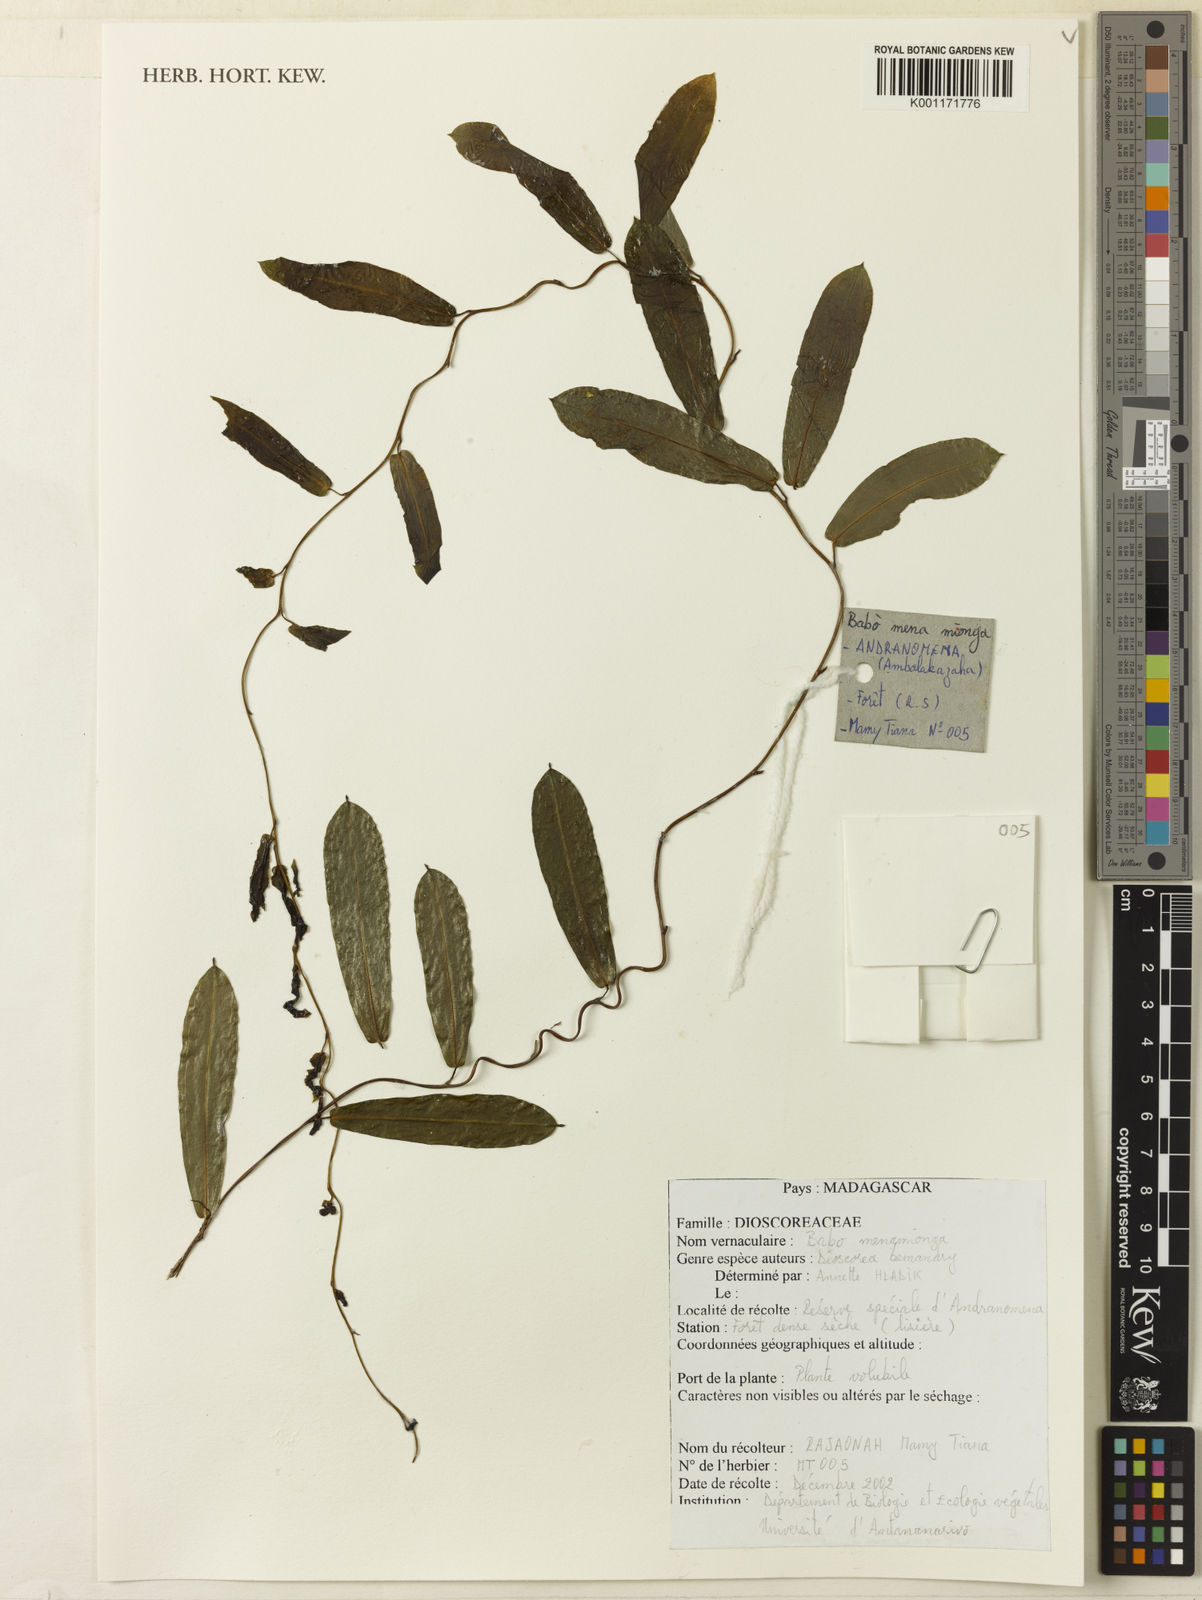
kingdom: Plantae
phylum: Tracheophyta
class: Liliopsida
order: Dioscoreales
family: Dioscoreaceae
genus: Dioscorea
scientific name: Dioscorea bemandry
